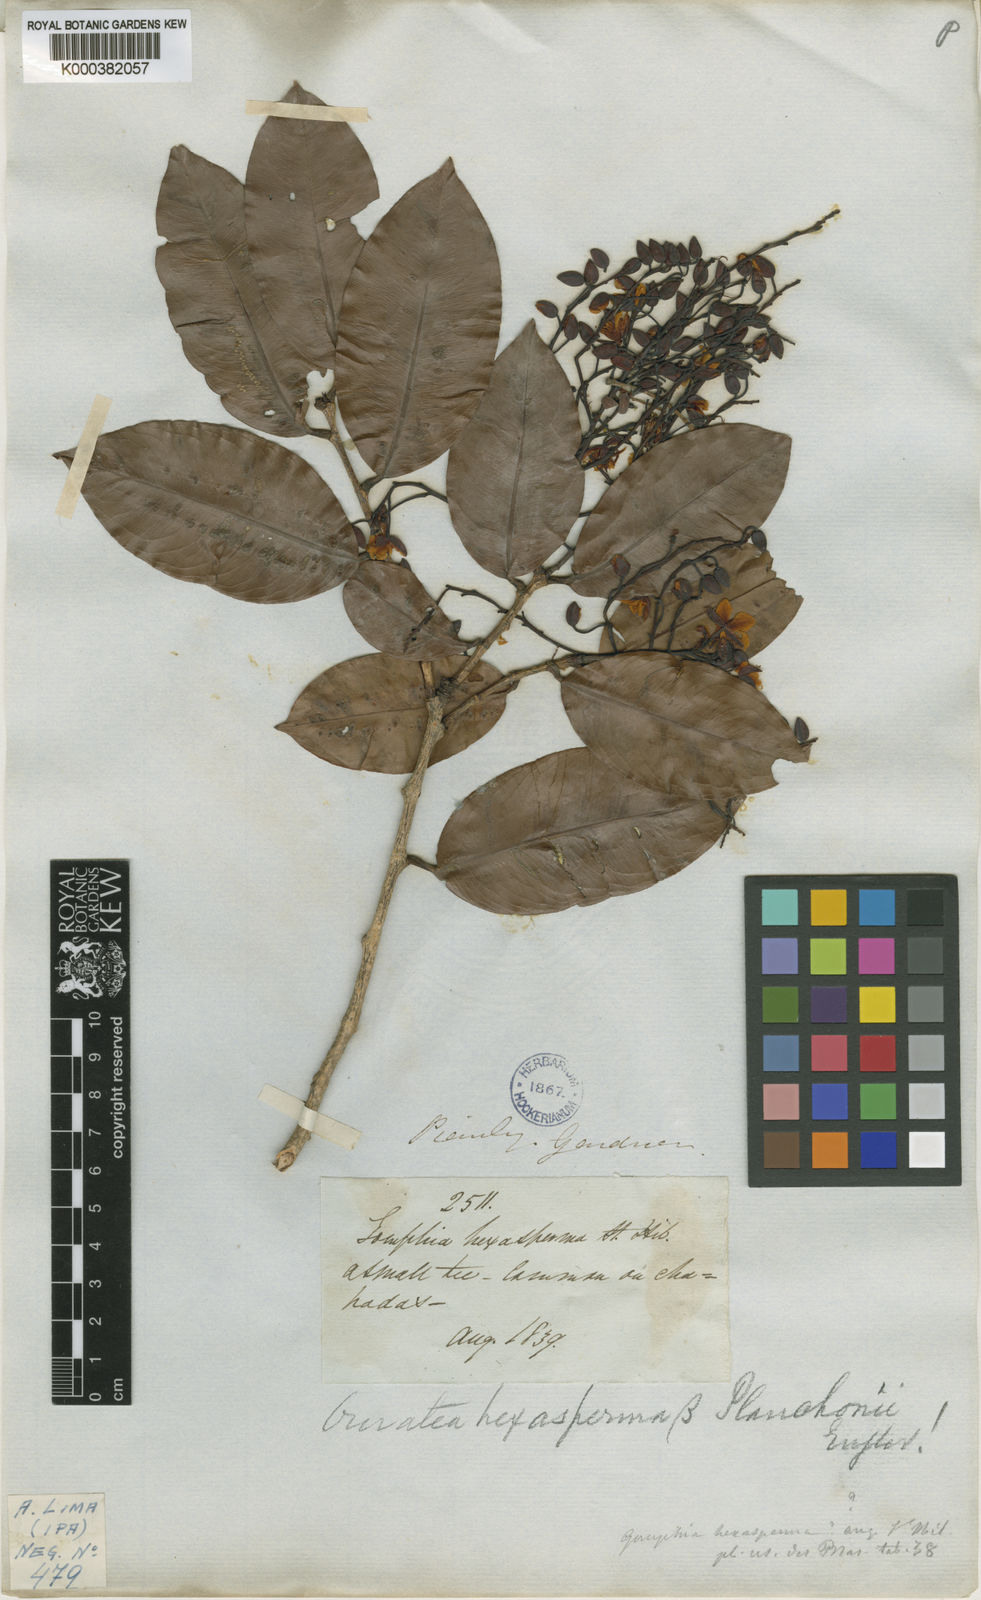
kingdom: Plantae
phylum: Tracheophyta
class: Magnoliopsida
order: Malpighiales
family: Ochnaceae
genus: Ouratea
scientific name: Ouratea hexasperma
